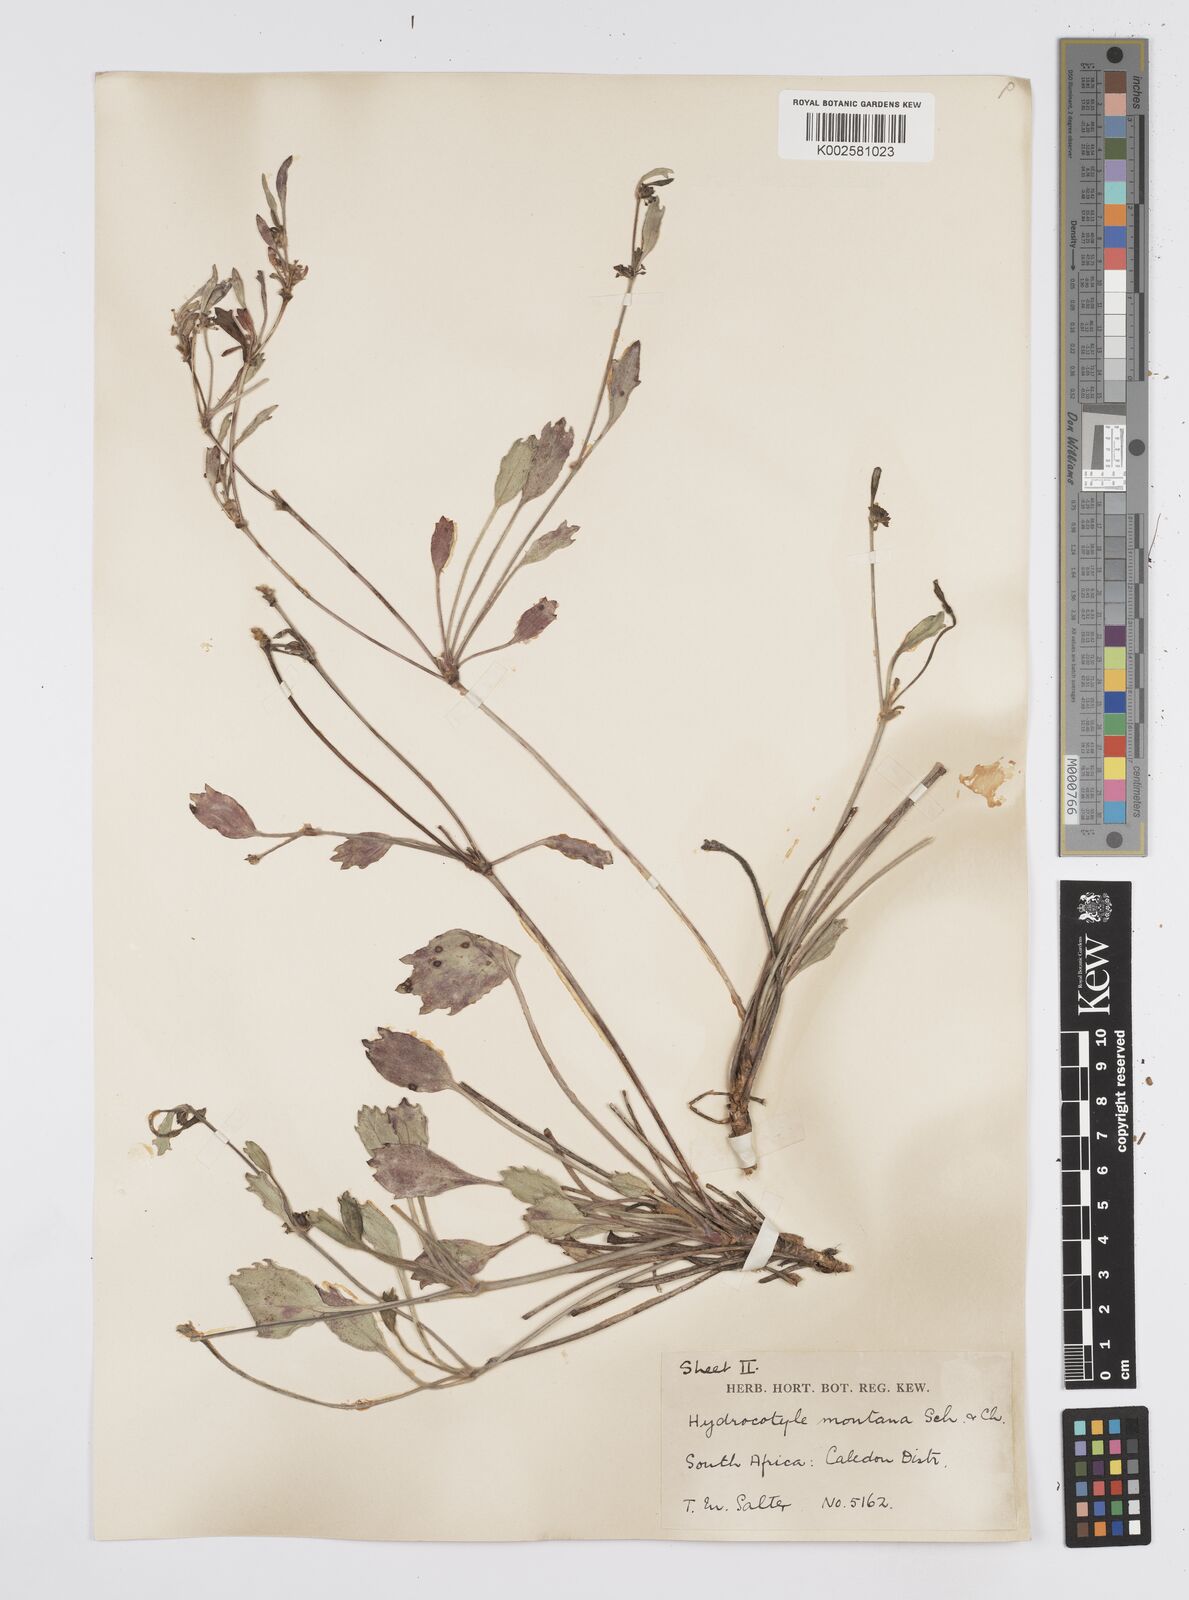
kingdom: Plantae
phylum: Tracheophyta
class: Magnoliopsida
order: Apiales
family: Apiaceae
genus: Centella
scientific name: Centella difformis
